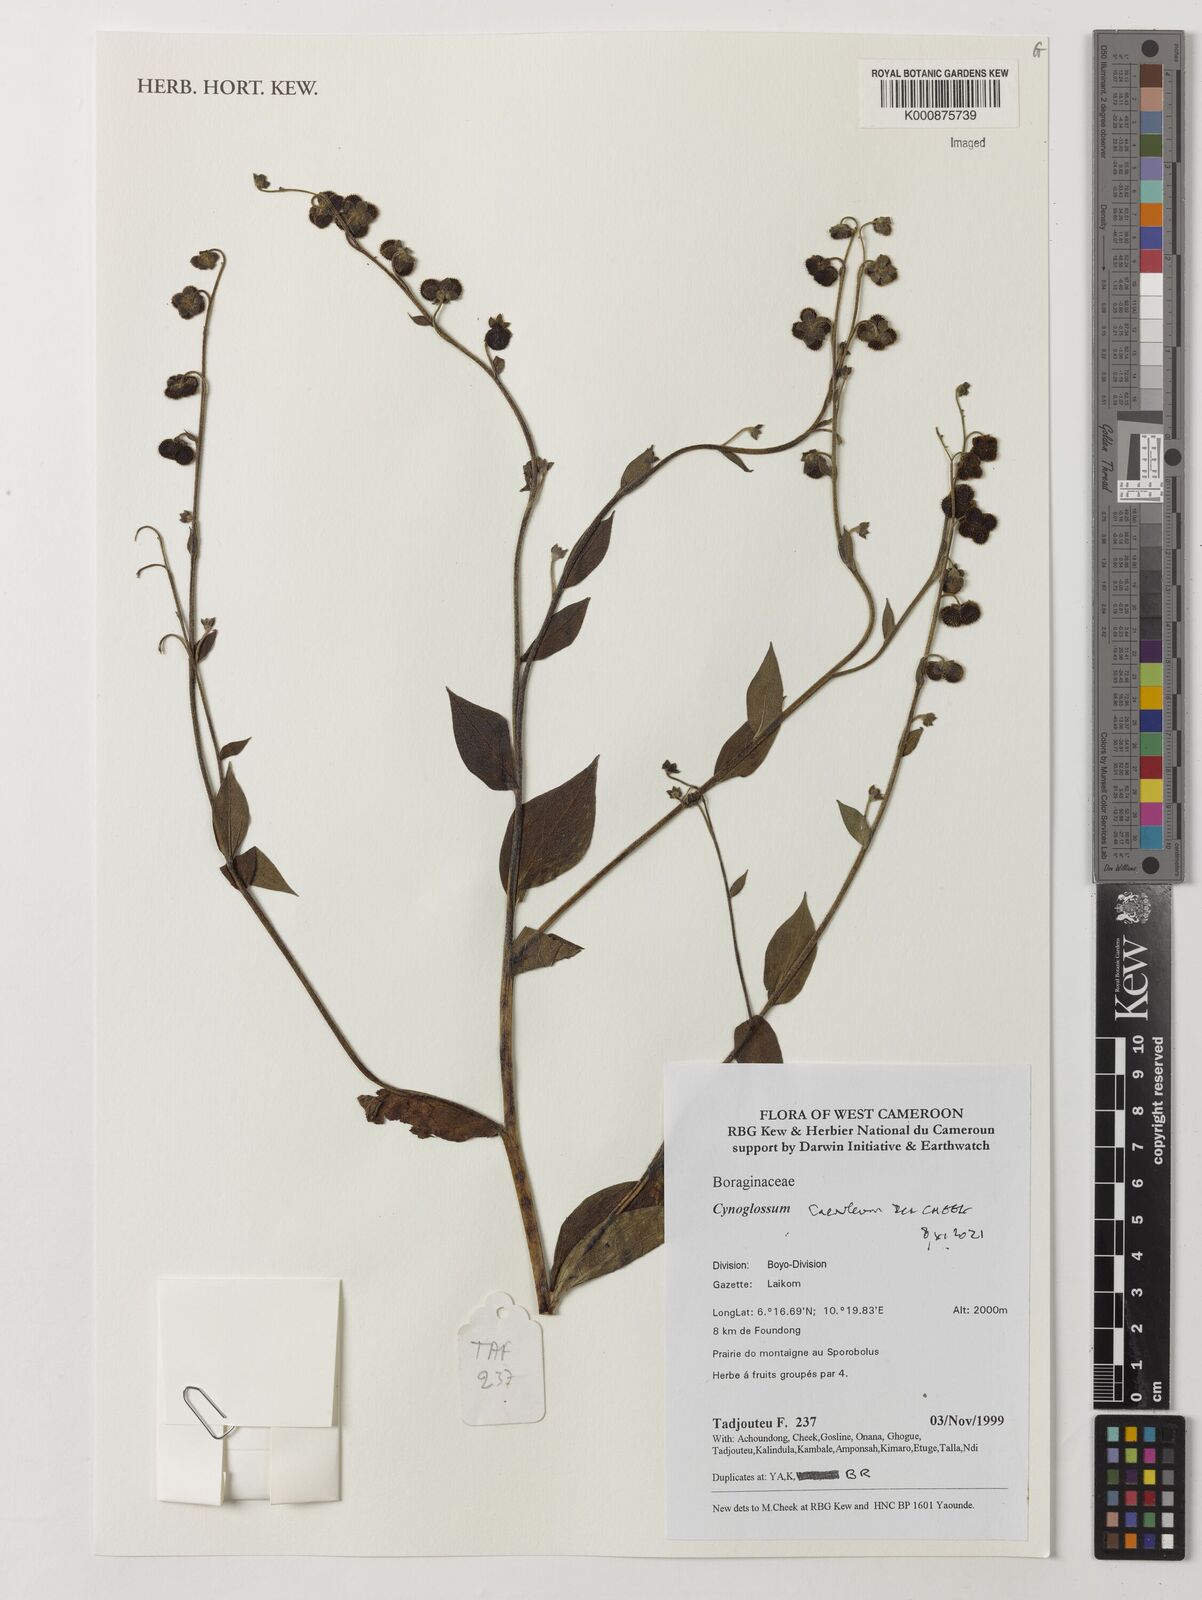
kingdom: Plantae
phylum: Tracheophyta
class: Magnoliopsida
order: Boraginales
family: Boraginaceae
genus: Rochelia
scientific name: Rochelia zeylanica
